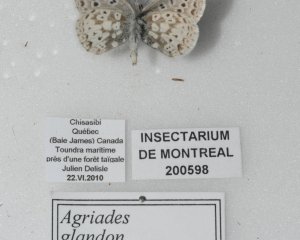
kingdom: Animalia
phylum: Arthropoda
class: Insecta
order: Lepidoptera
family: Lycaenidae
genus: Agriades
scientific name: Agriades glandon
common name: Arctic Blue
